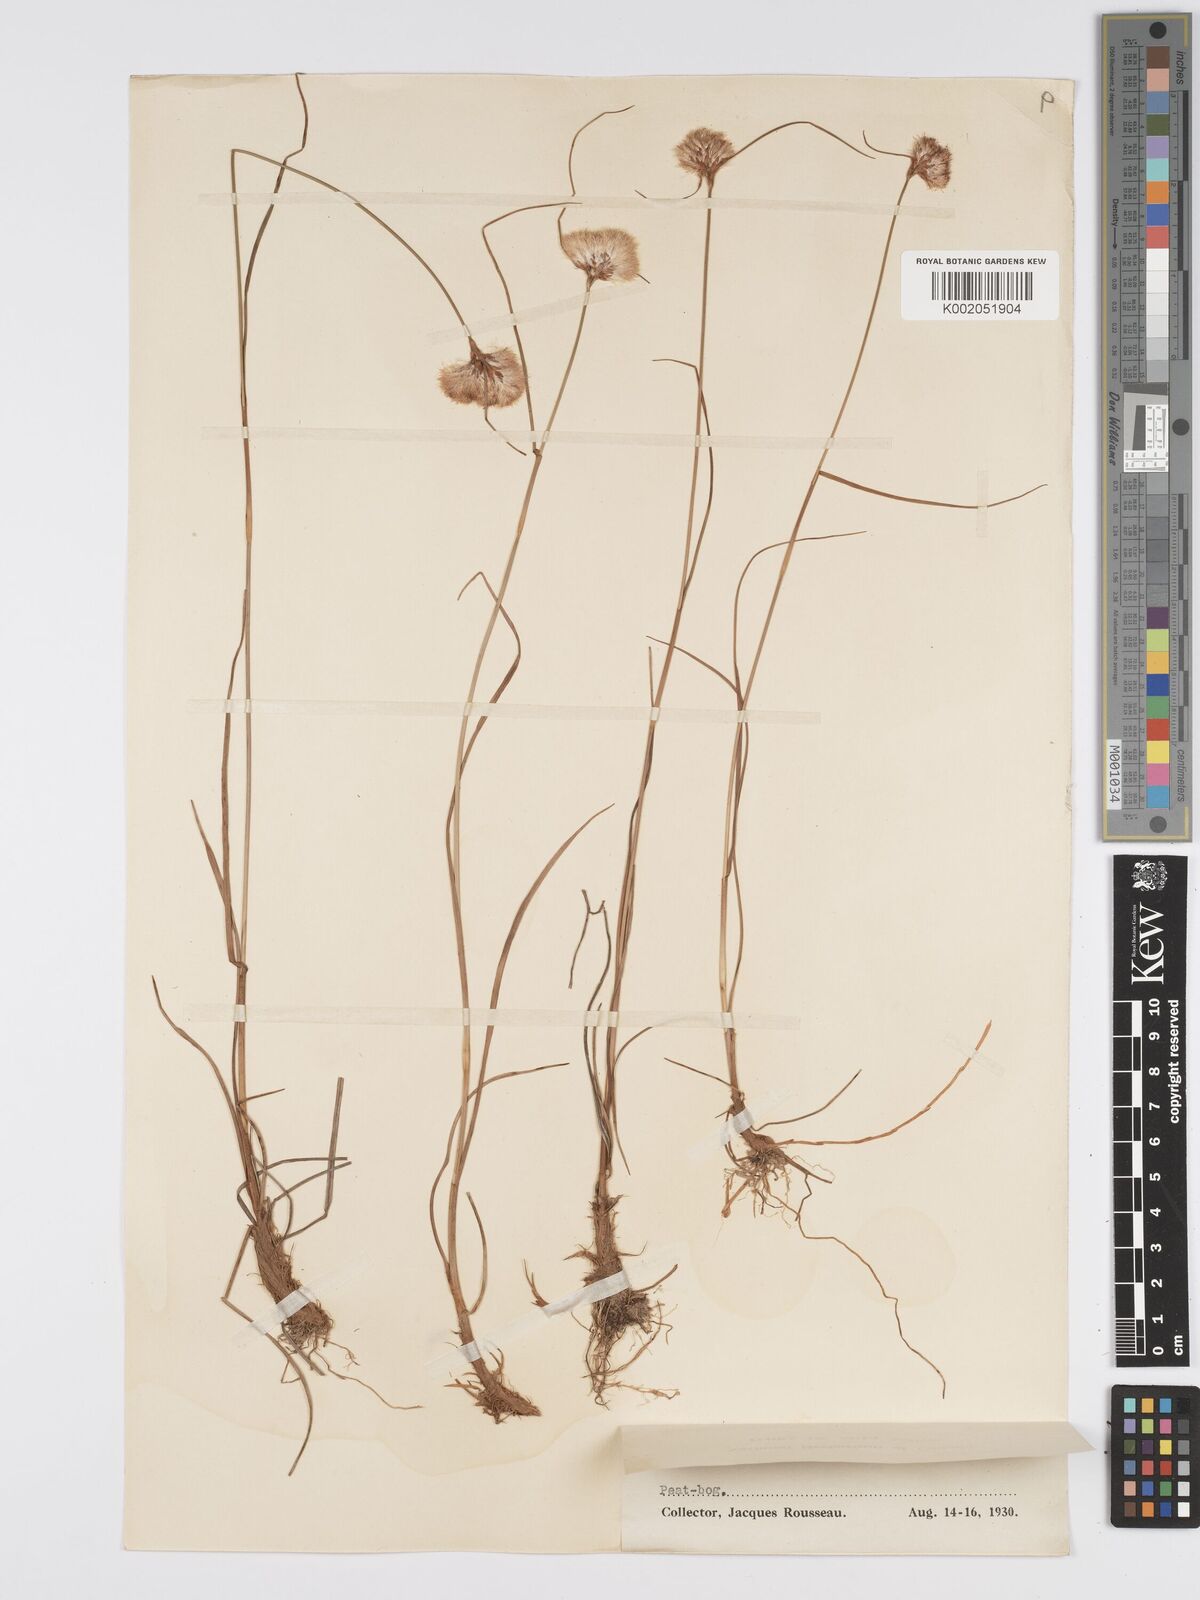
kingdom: Plantae
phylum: Tracheophyta
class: Liliopsida
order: Poales
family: Cyperaceae
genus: Eriophorum
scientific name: Eriophorum virginicum
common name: Tawny cottongrass
